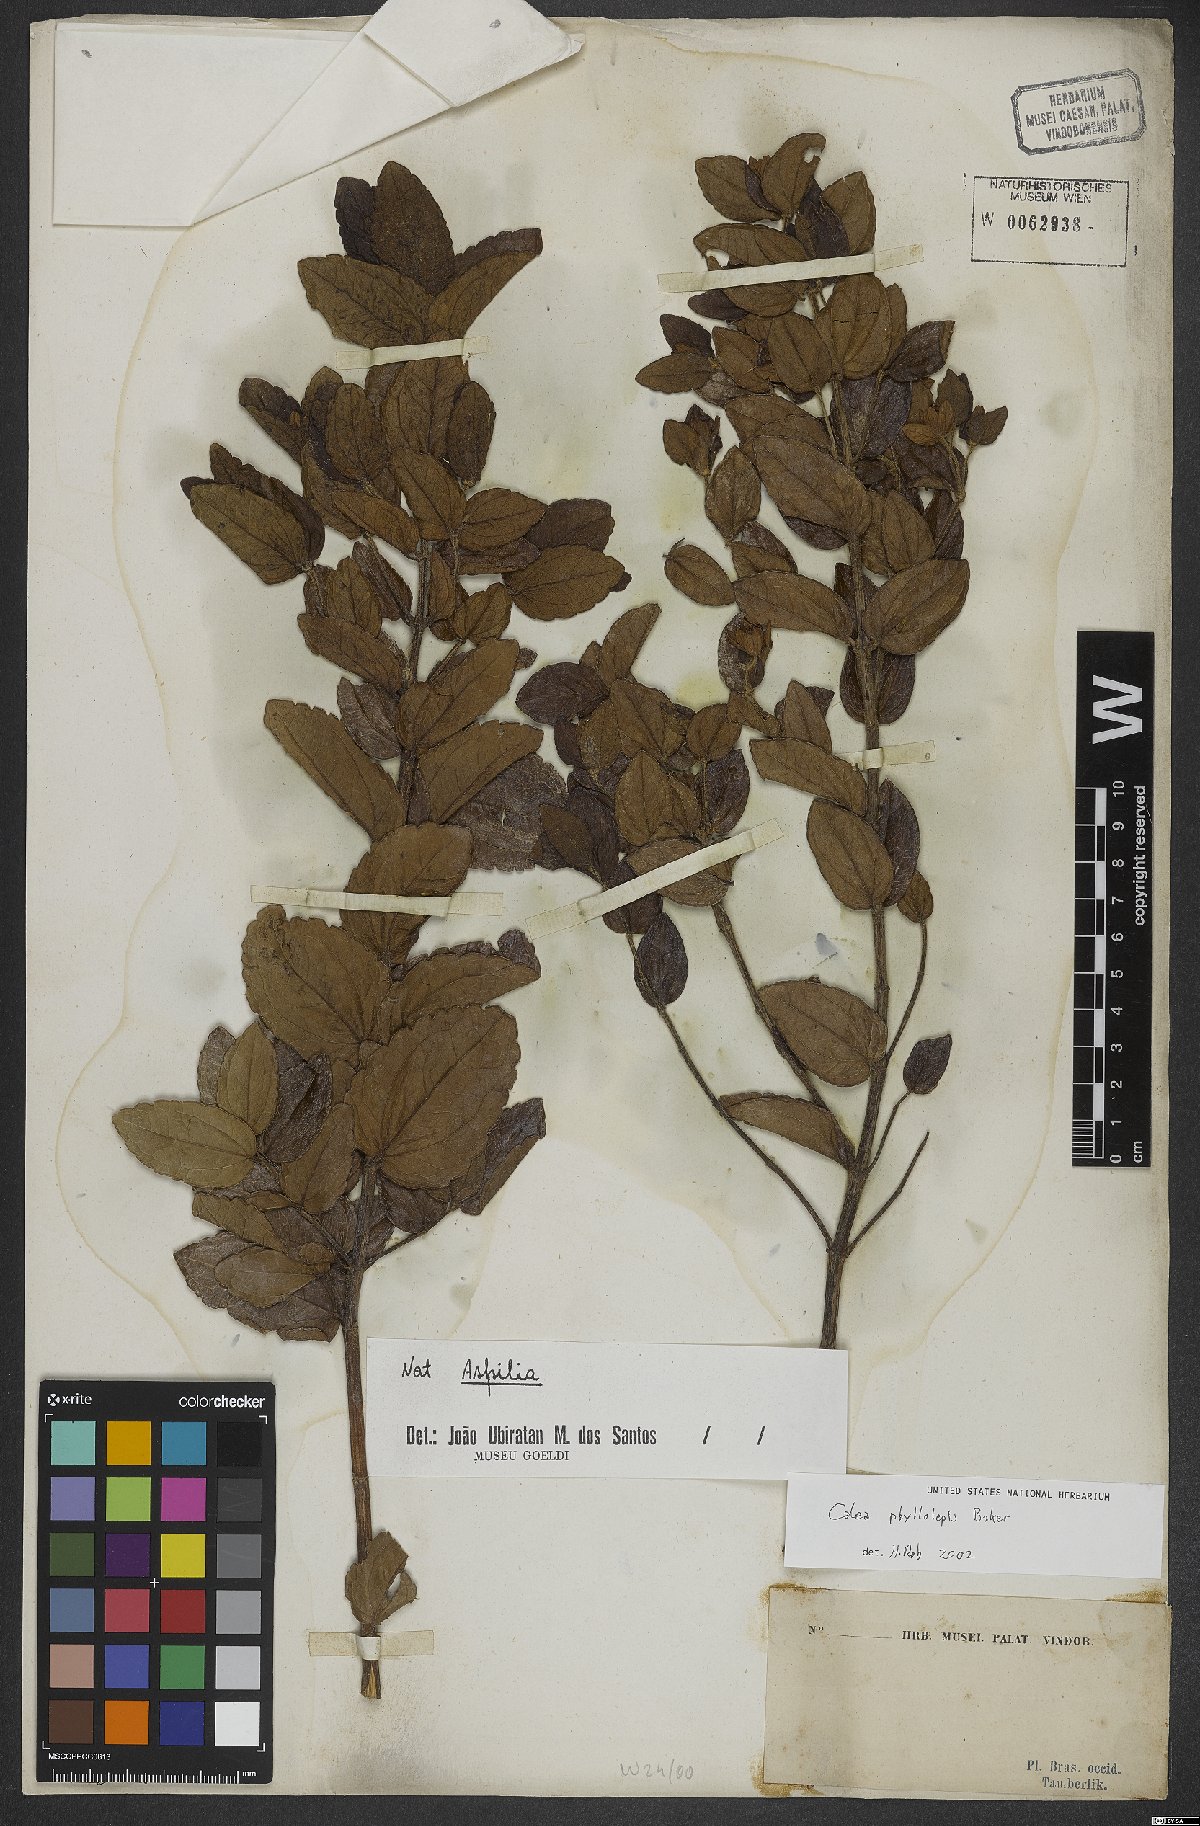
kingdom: Plantae
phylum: Tracheophyta
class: Magnoliopsida
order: Asterales
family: Asteraceae
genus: Calea
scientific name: Calea phyllolepis
